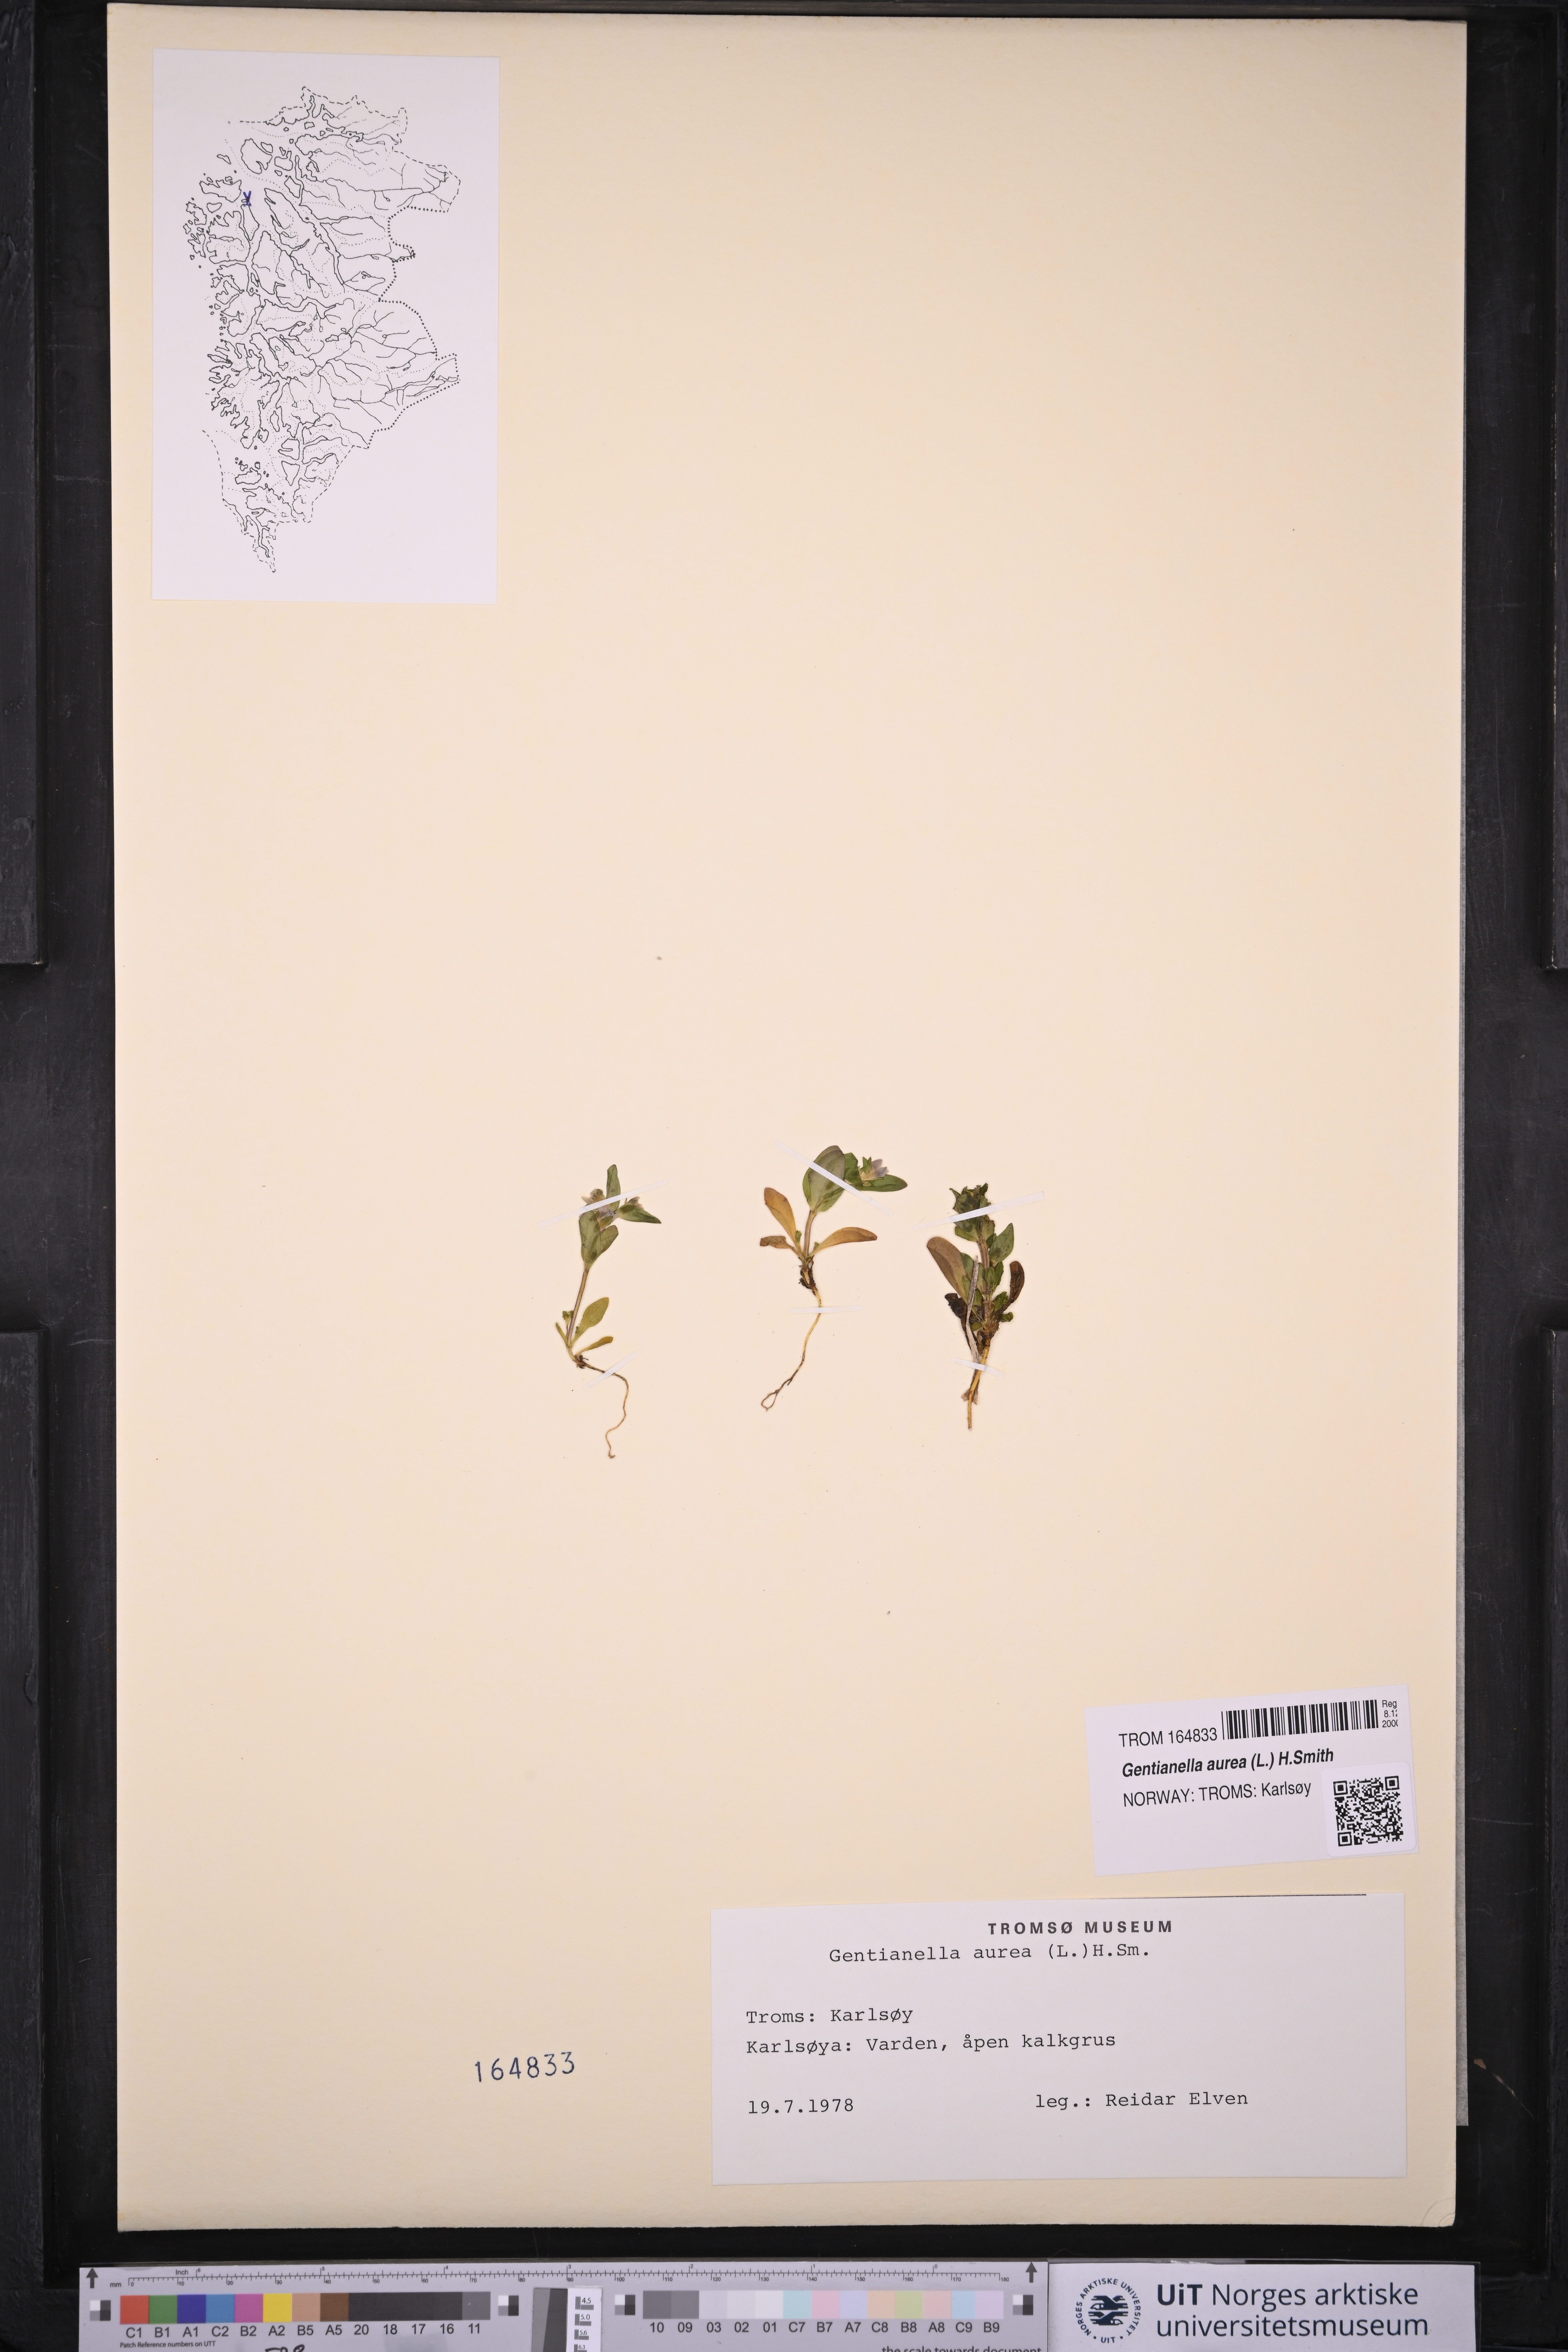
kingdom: Plantae
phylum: Tracheophyta
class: Magnoliopsida
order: Gentianales
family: Gentianaceae
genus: Gentianella
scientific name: Gentianella aurea
